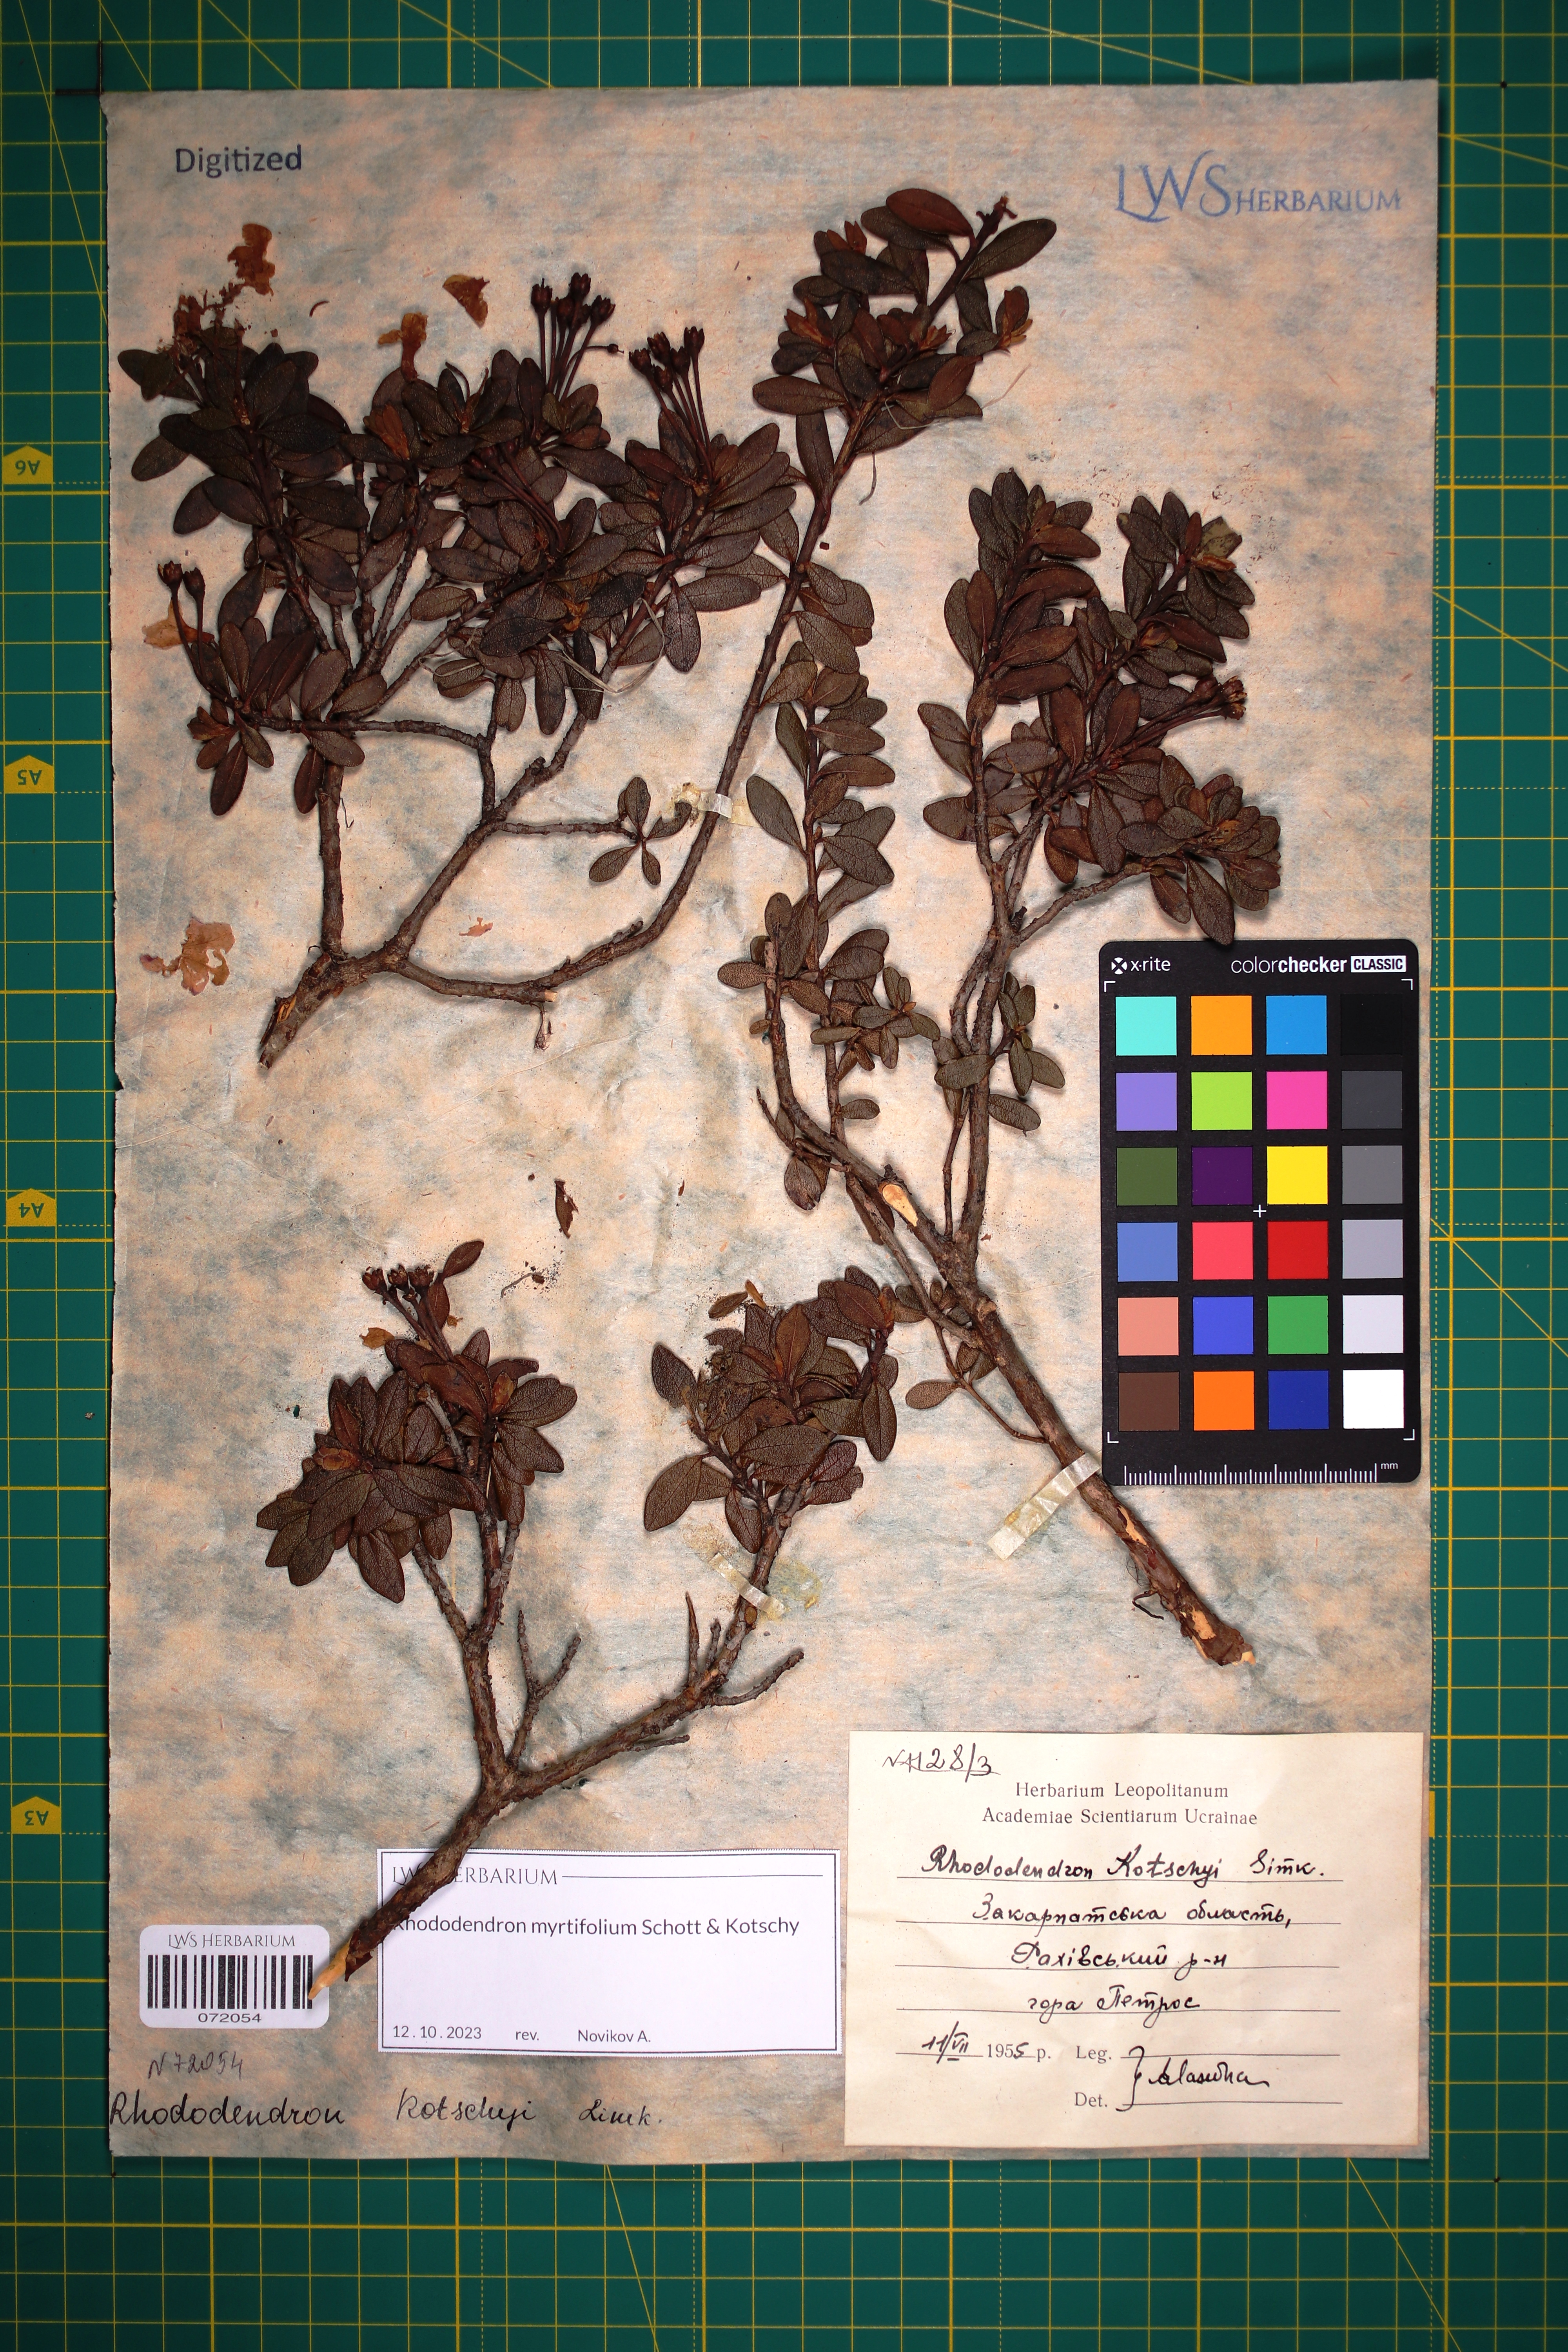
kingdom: Plantae
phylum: Tracheophyta
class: Magnoliopsida
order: Ericales
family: Ericaceae
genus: Rhododendron
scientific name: Rhododendron kotschyi
